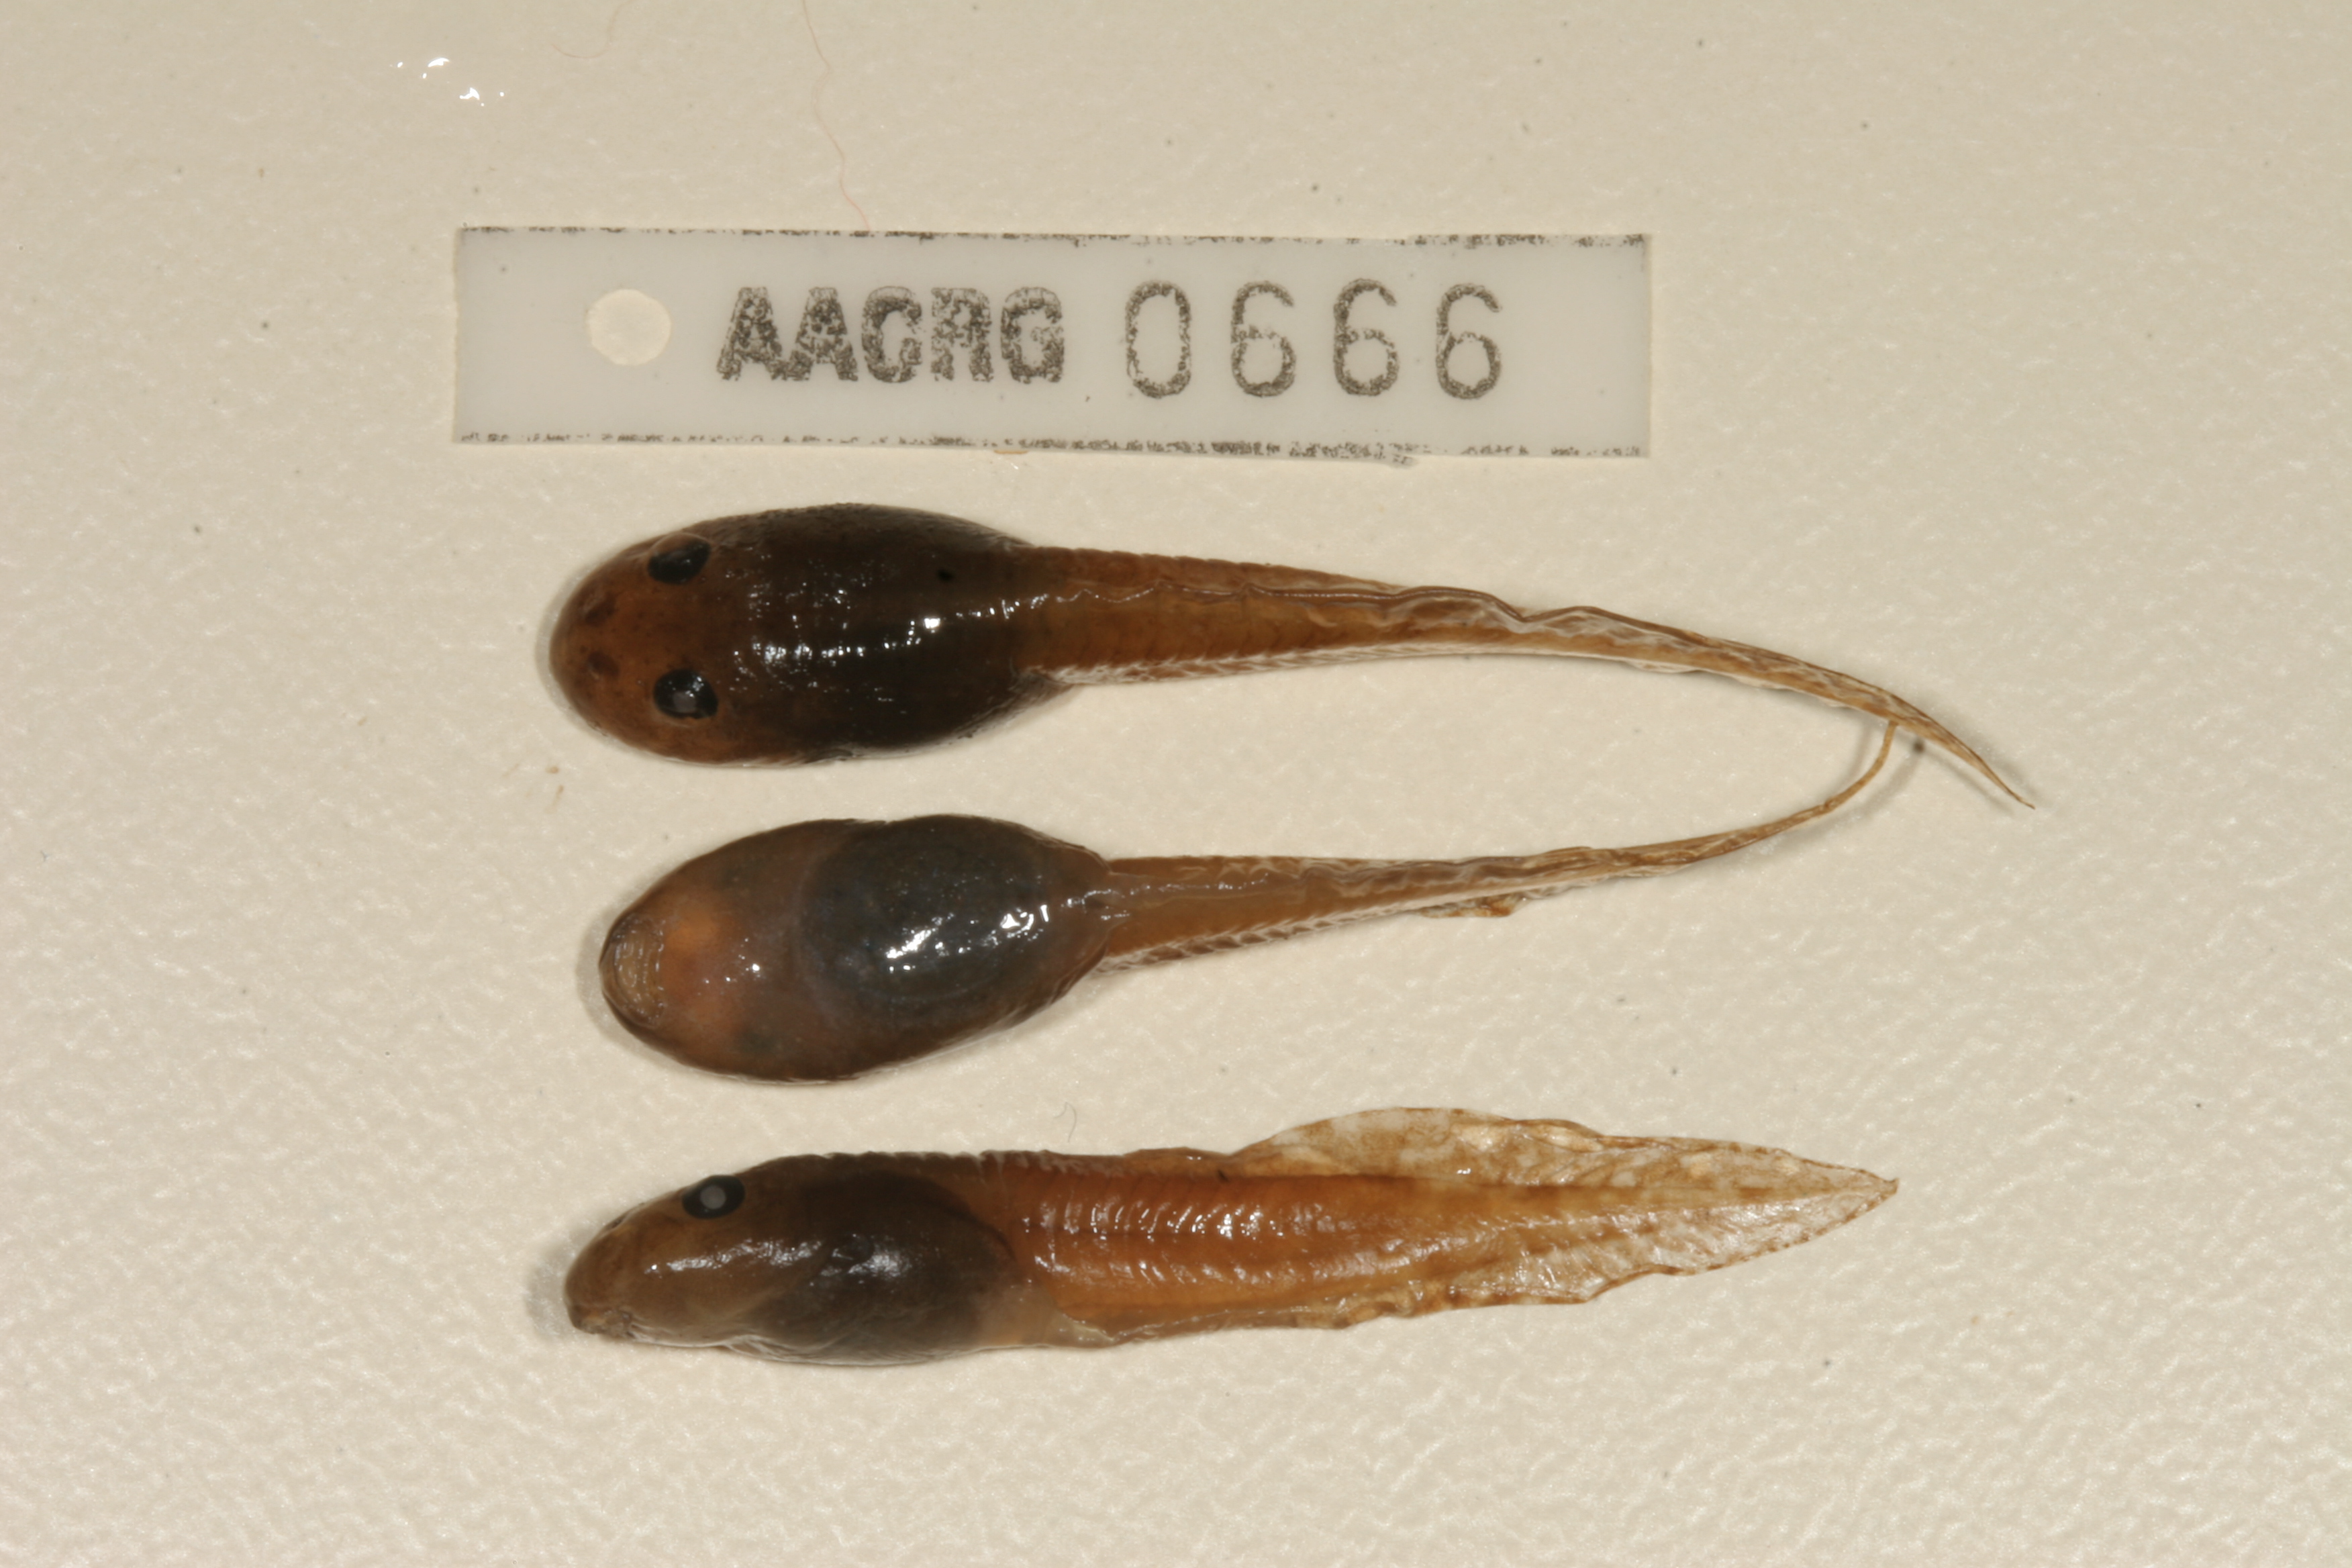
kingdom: Animalia
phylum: Chordata
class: Amphibia
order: Anura
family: Pyxicephalidae
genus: Amietia
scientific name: Amietia fuscigula
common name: Cape rana
